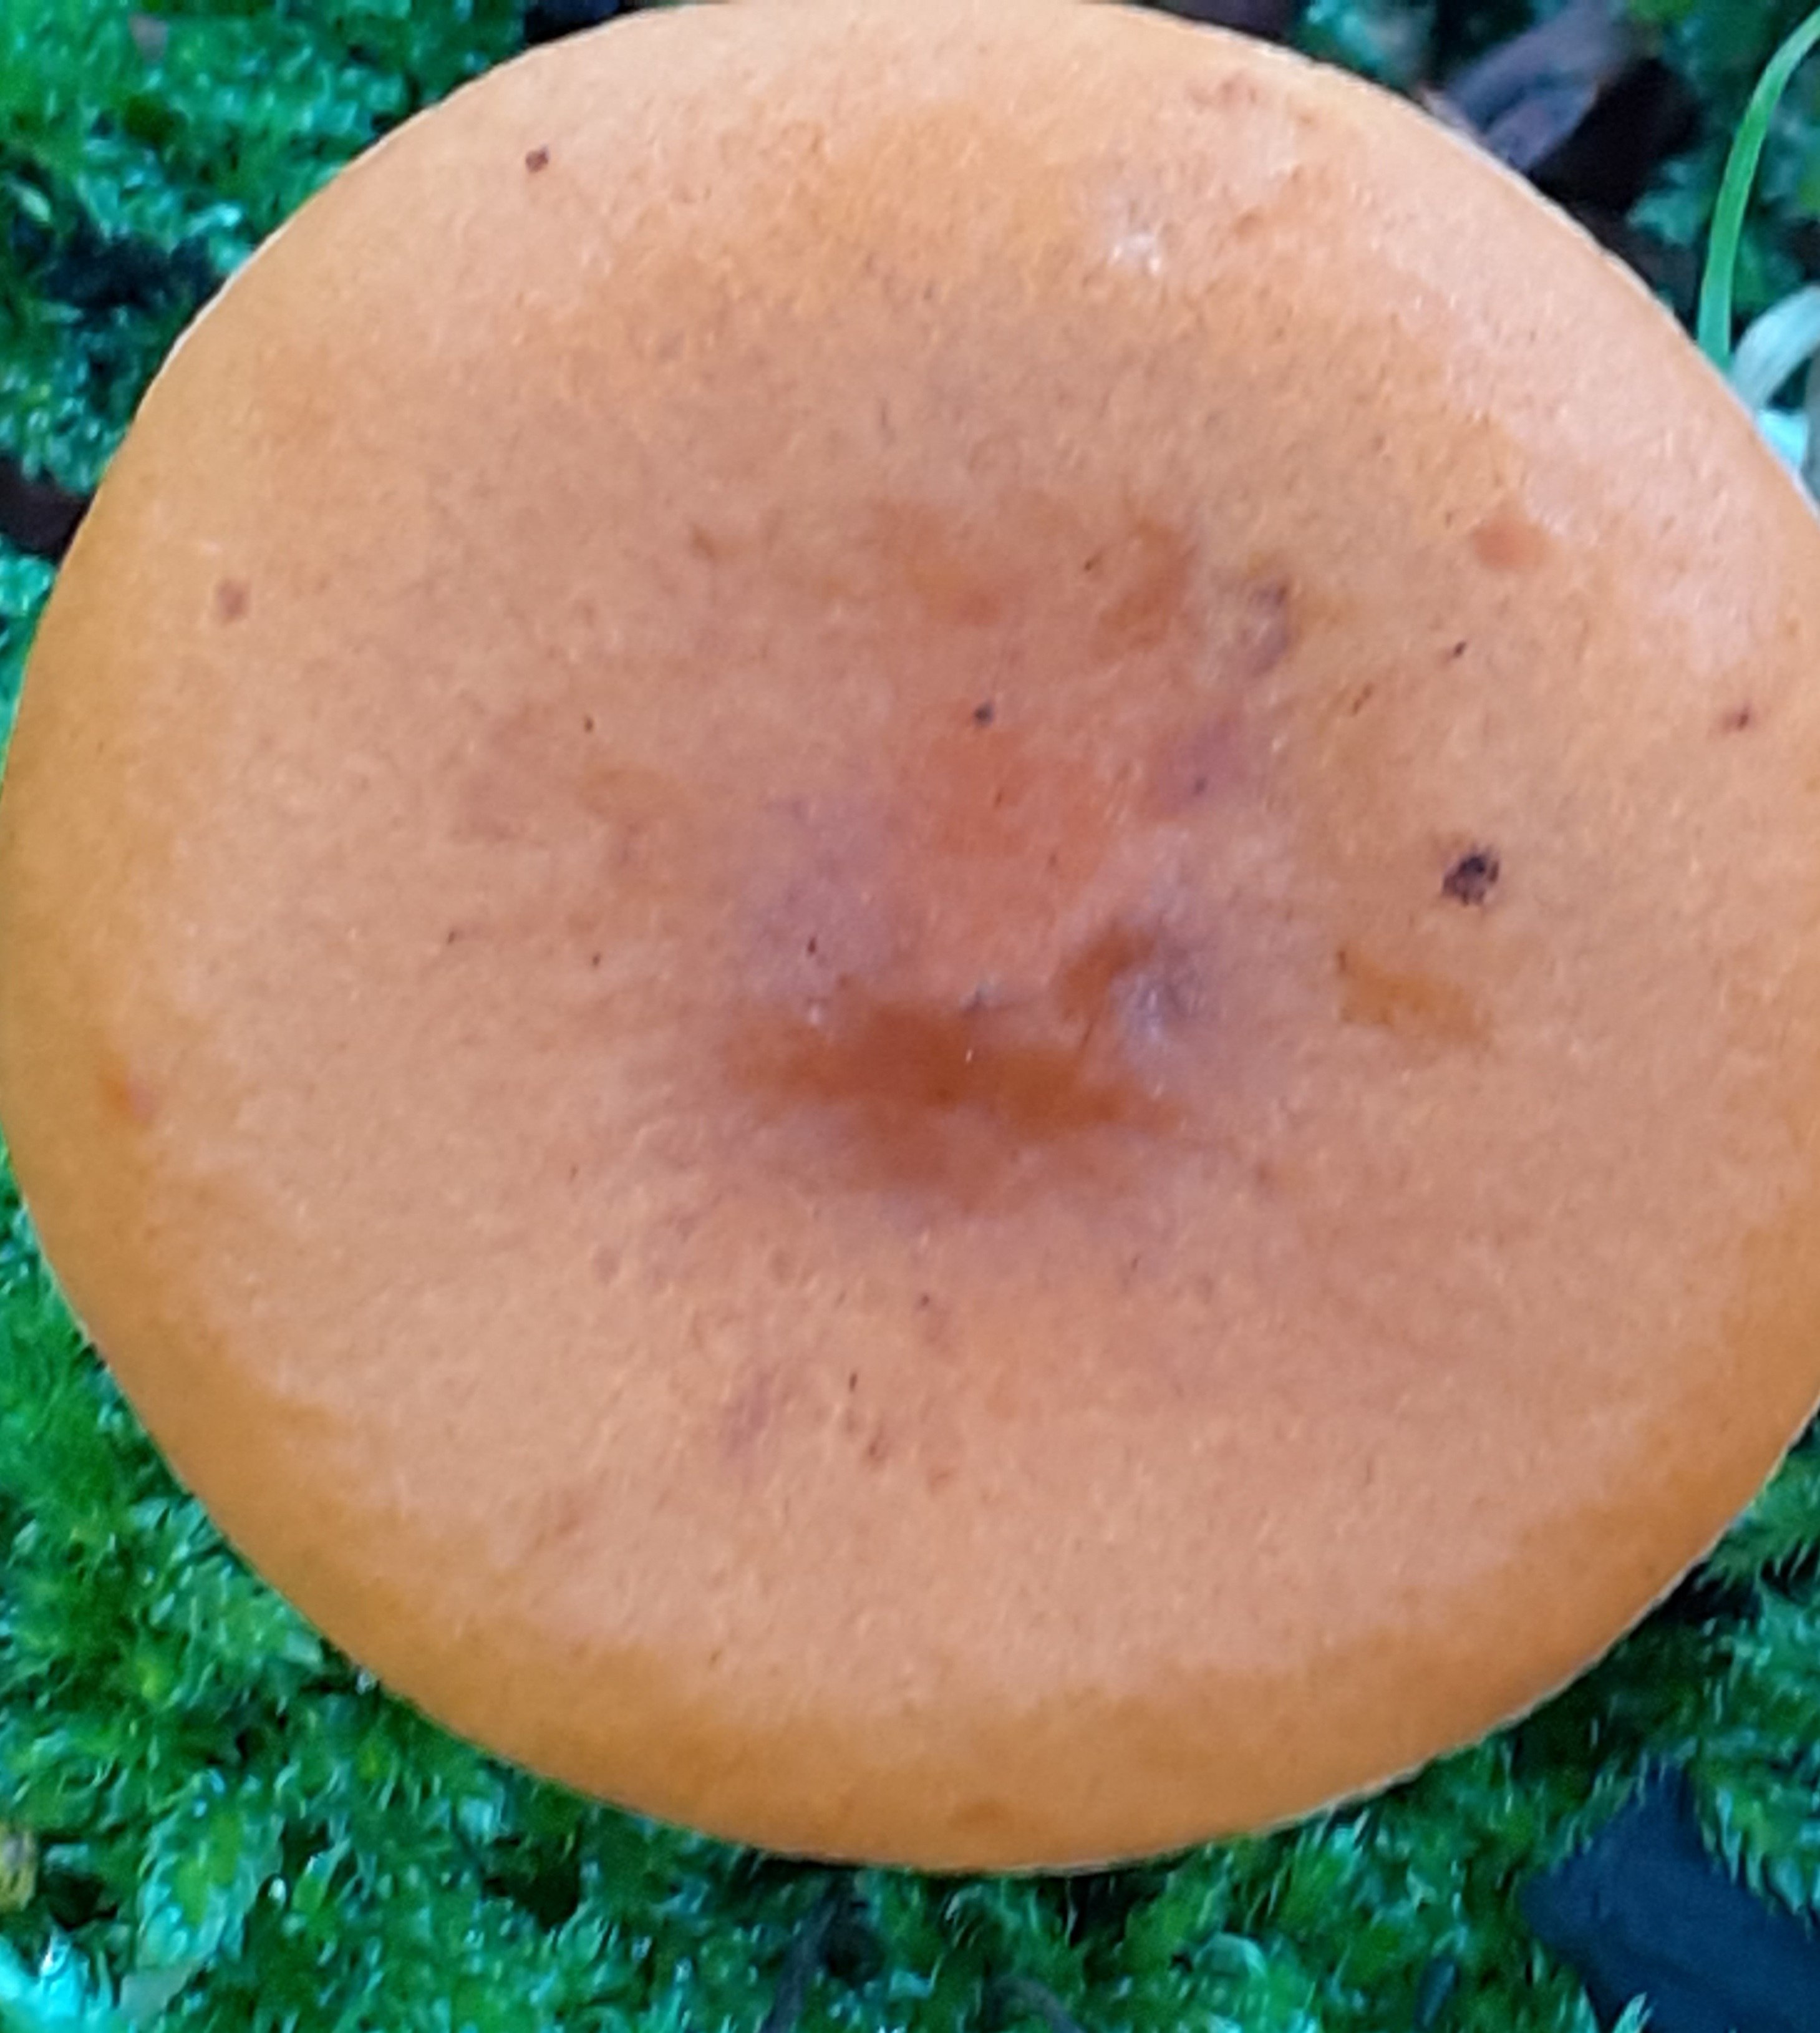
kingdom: Fungi
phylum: Basidiomycota
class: Agaricomycetes
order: Russulales
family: Russulaceae
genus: Lactarius
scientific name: Lactarius aurantiacus
